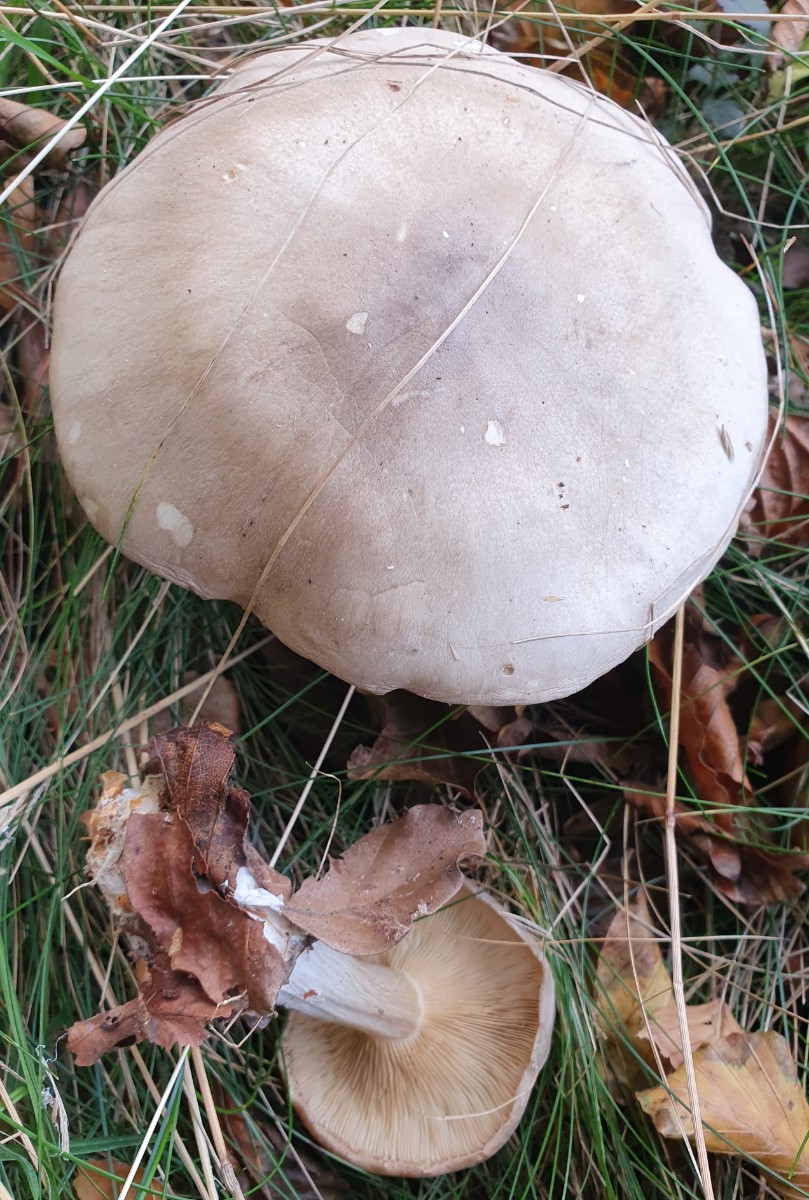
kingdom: Fungi
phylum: Basidiomycota
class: Agaricomycetes
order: Agaricales
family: Tricholomataceae
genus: Clitocybe
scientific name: Clitocybe nebularis
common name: tåge-tragthat
